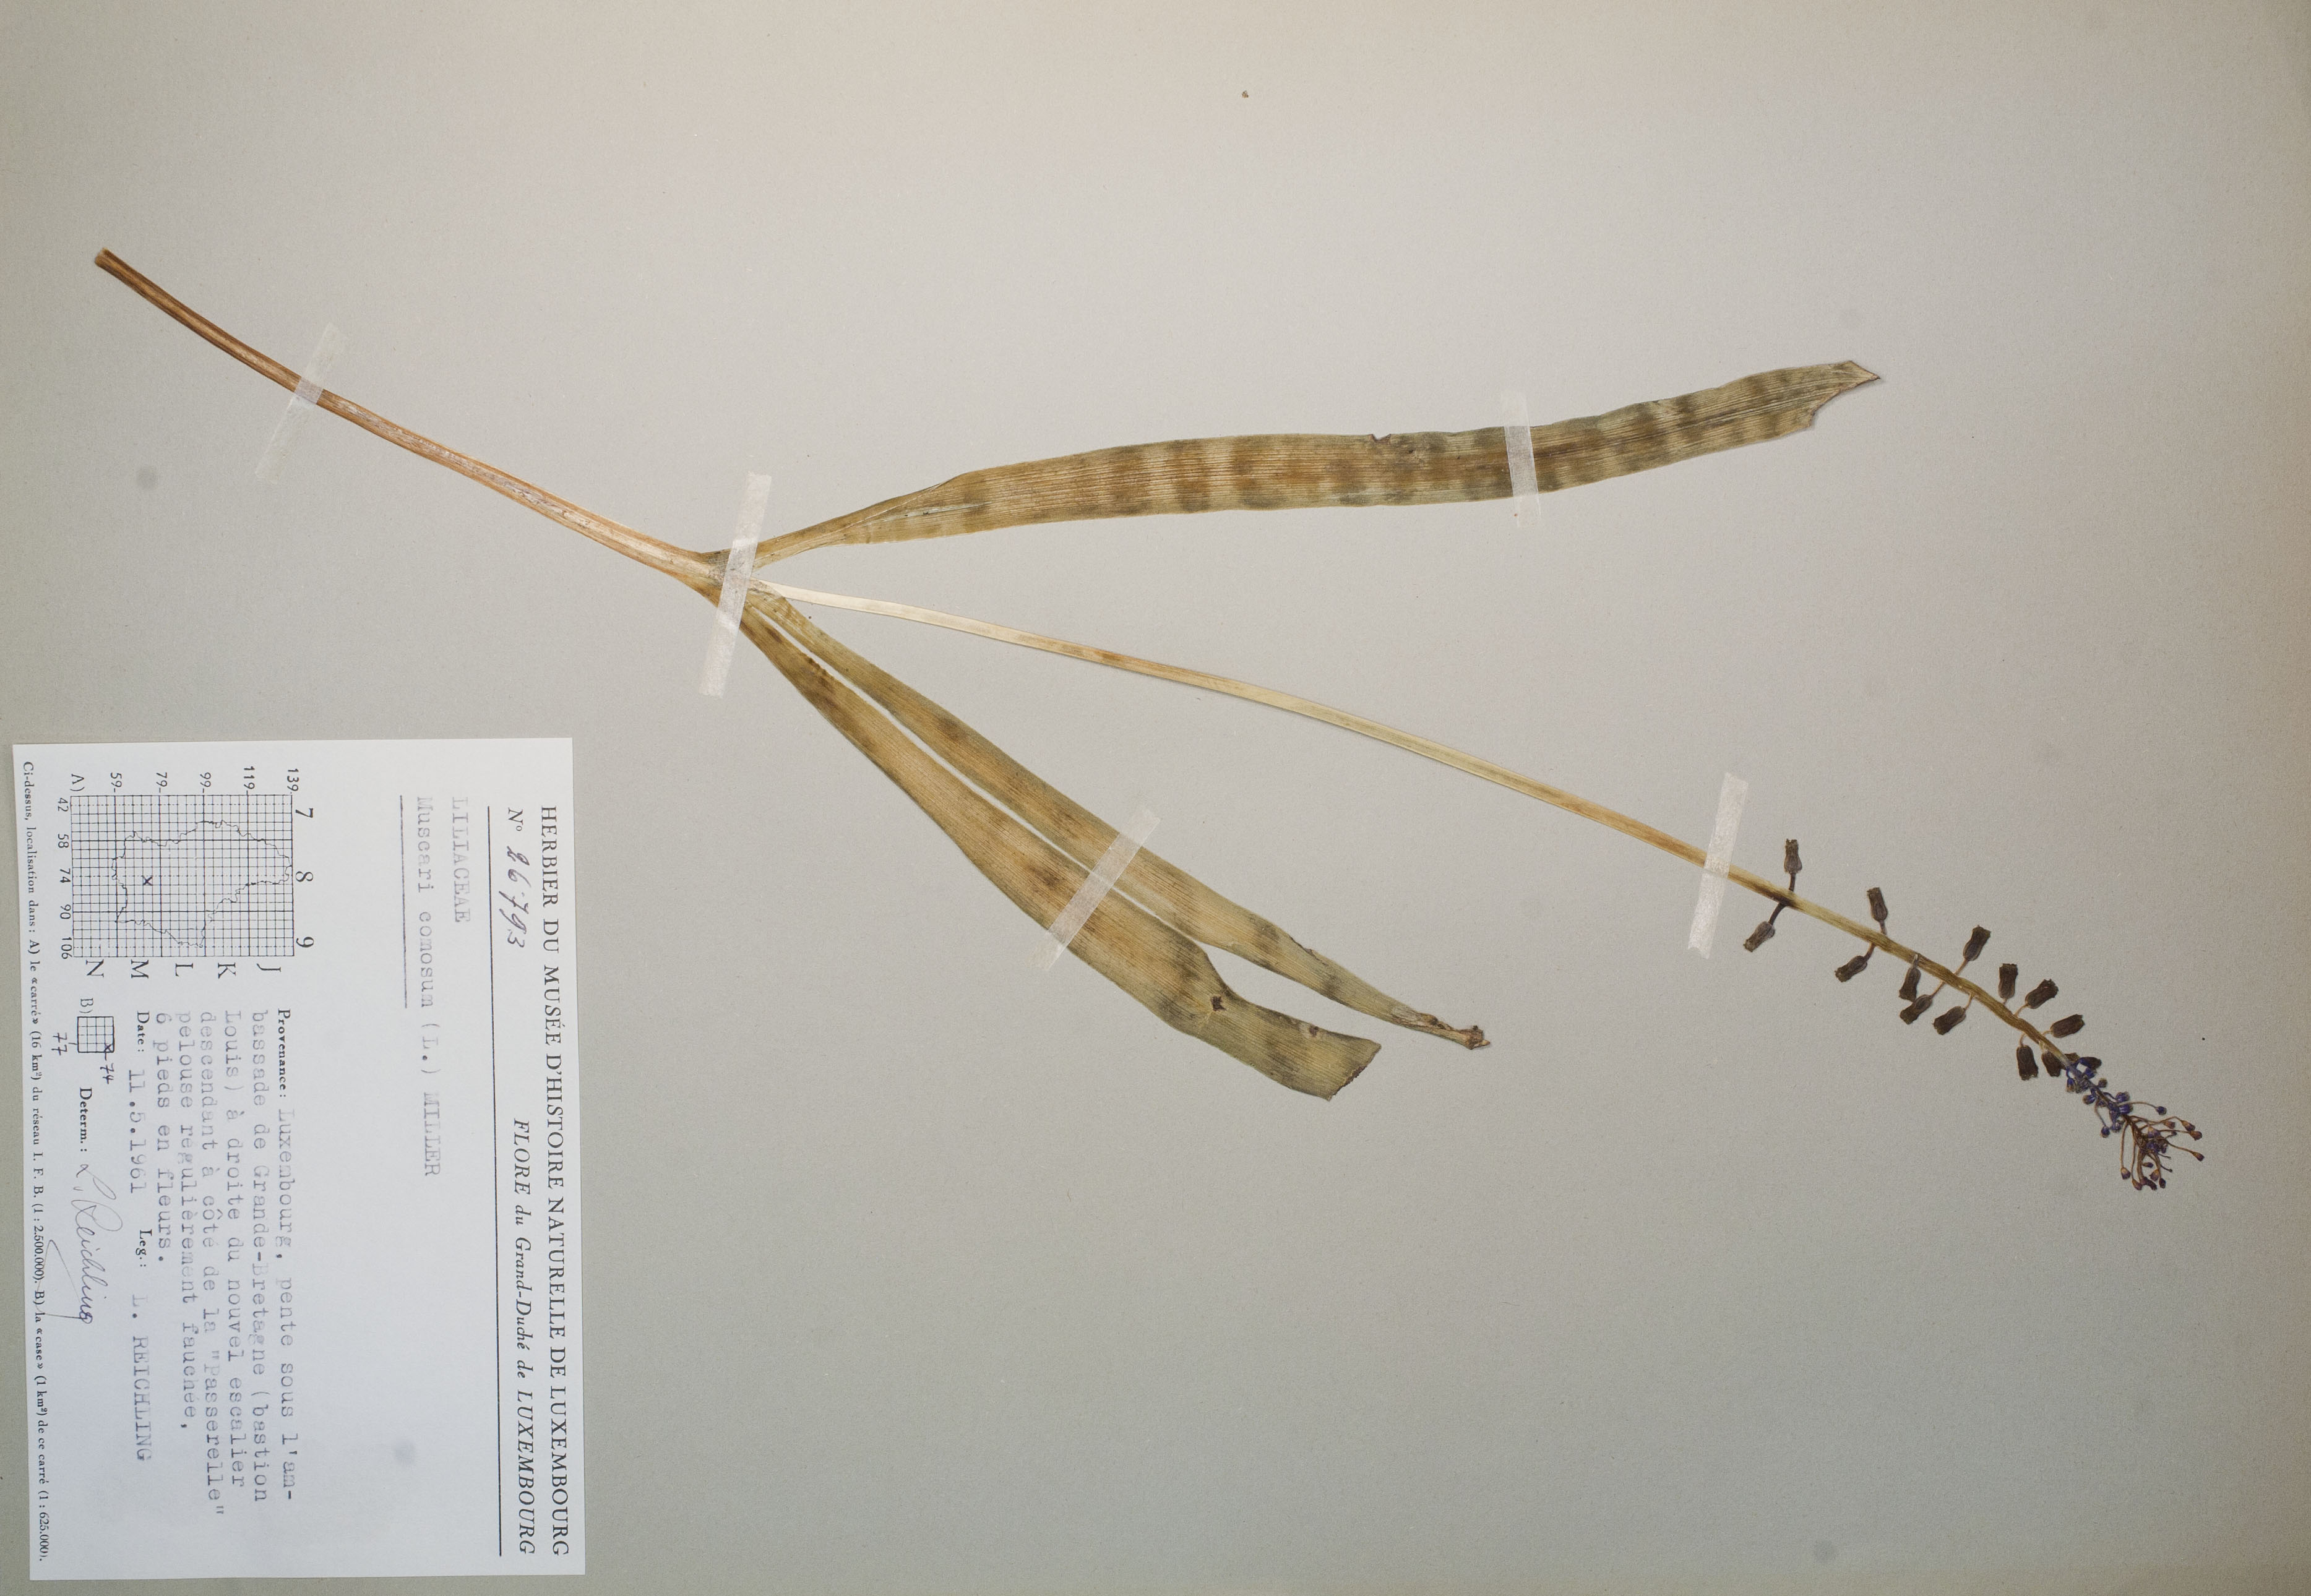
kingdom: Plantae
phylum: Tracheophyta
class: Liliopsida
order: Asparagales
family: Asparagaceae
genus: Muscari
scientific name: Muscari comosum
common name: Tassel hyacinth
